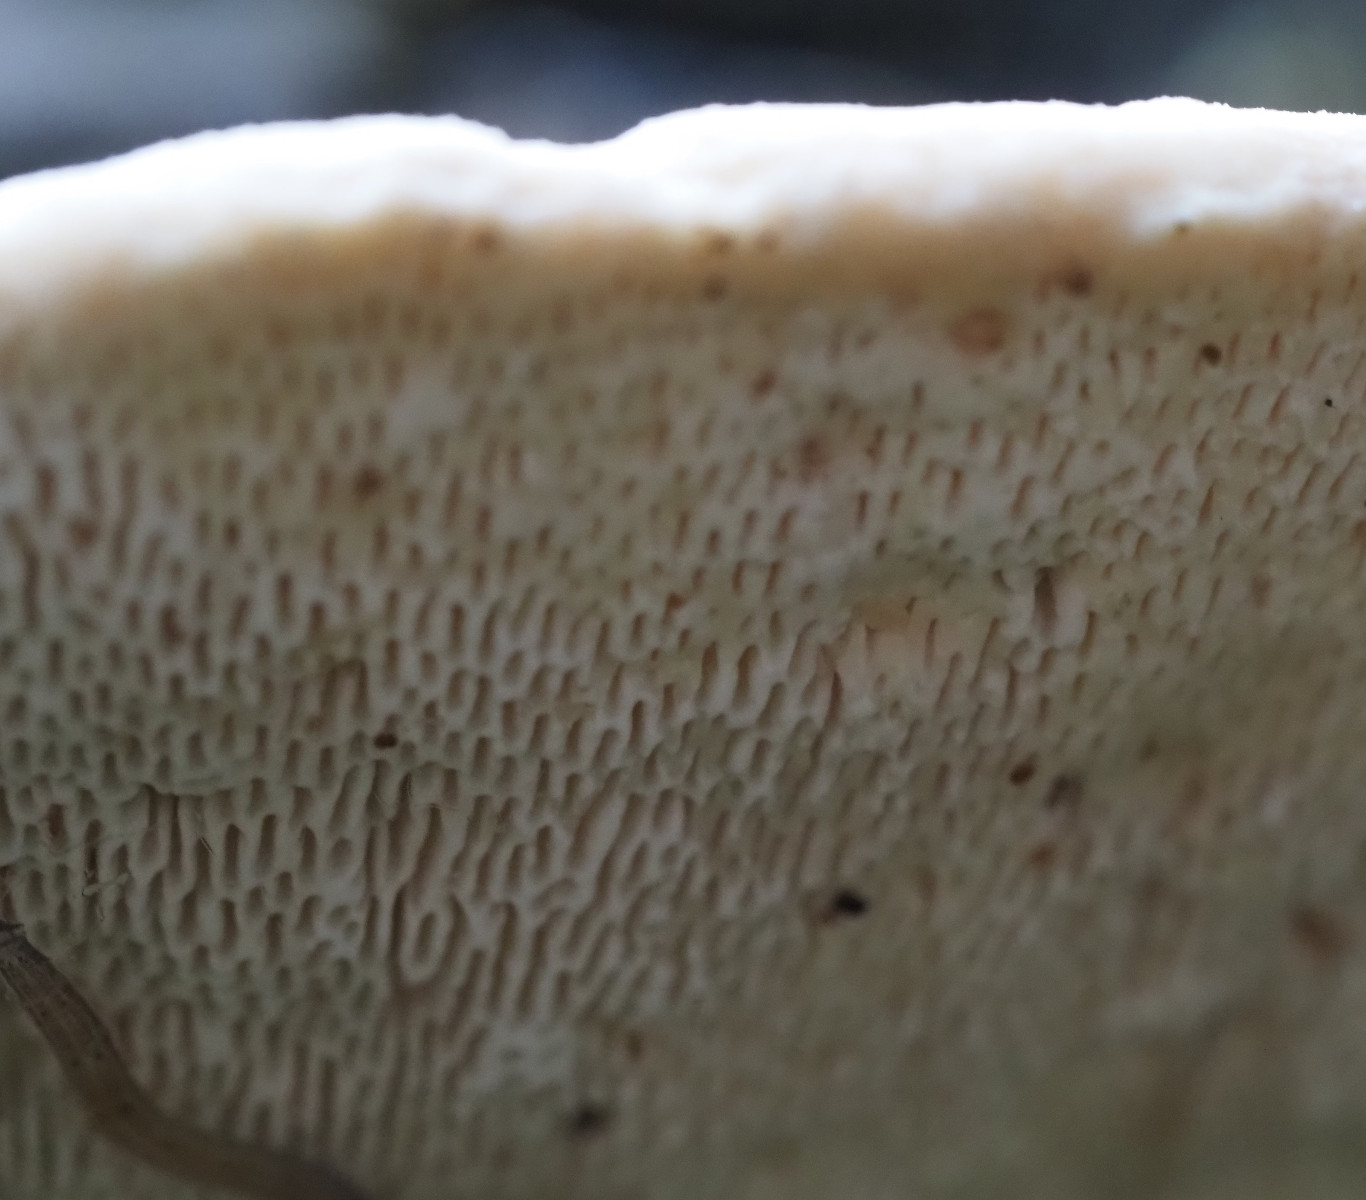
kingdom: Fungi
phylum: Basidiomycota
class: Agaricomycetes
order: Polyporales
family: Polyporaceae
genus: Trametes
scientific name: Trametes gibbosa
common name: puklet læderporesvamp
